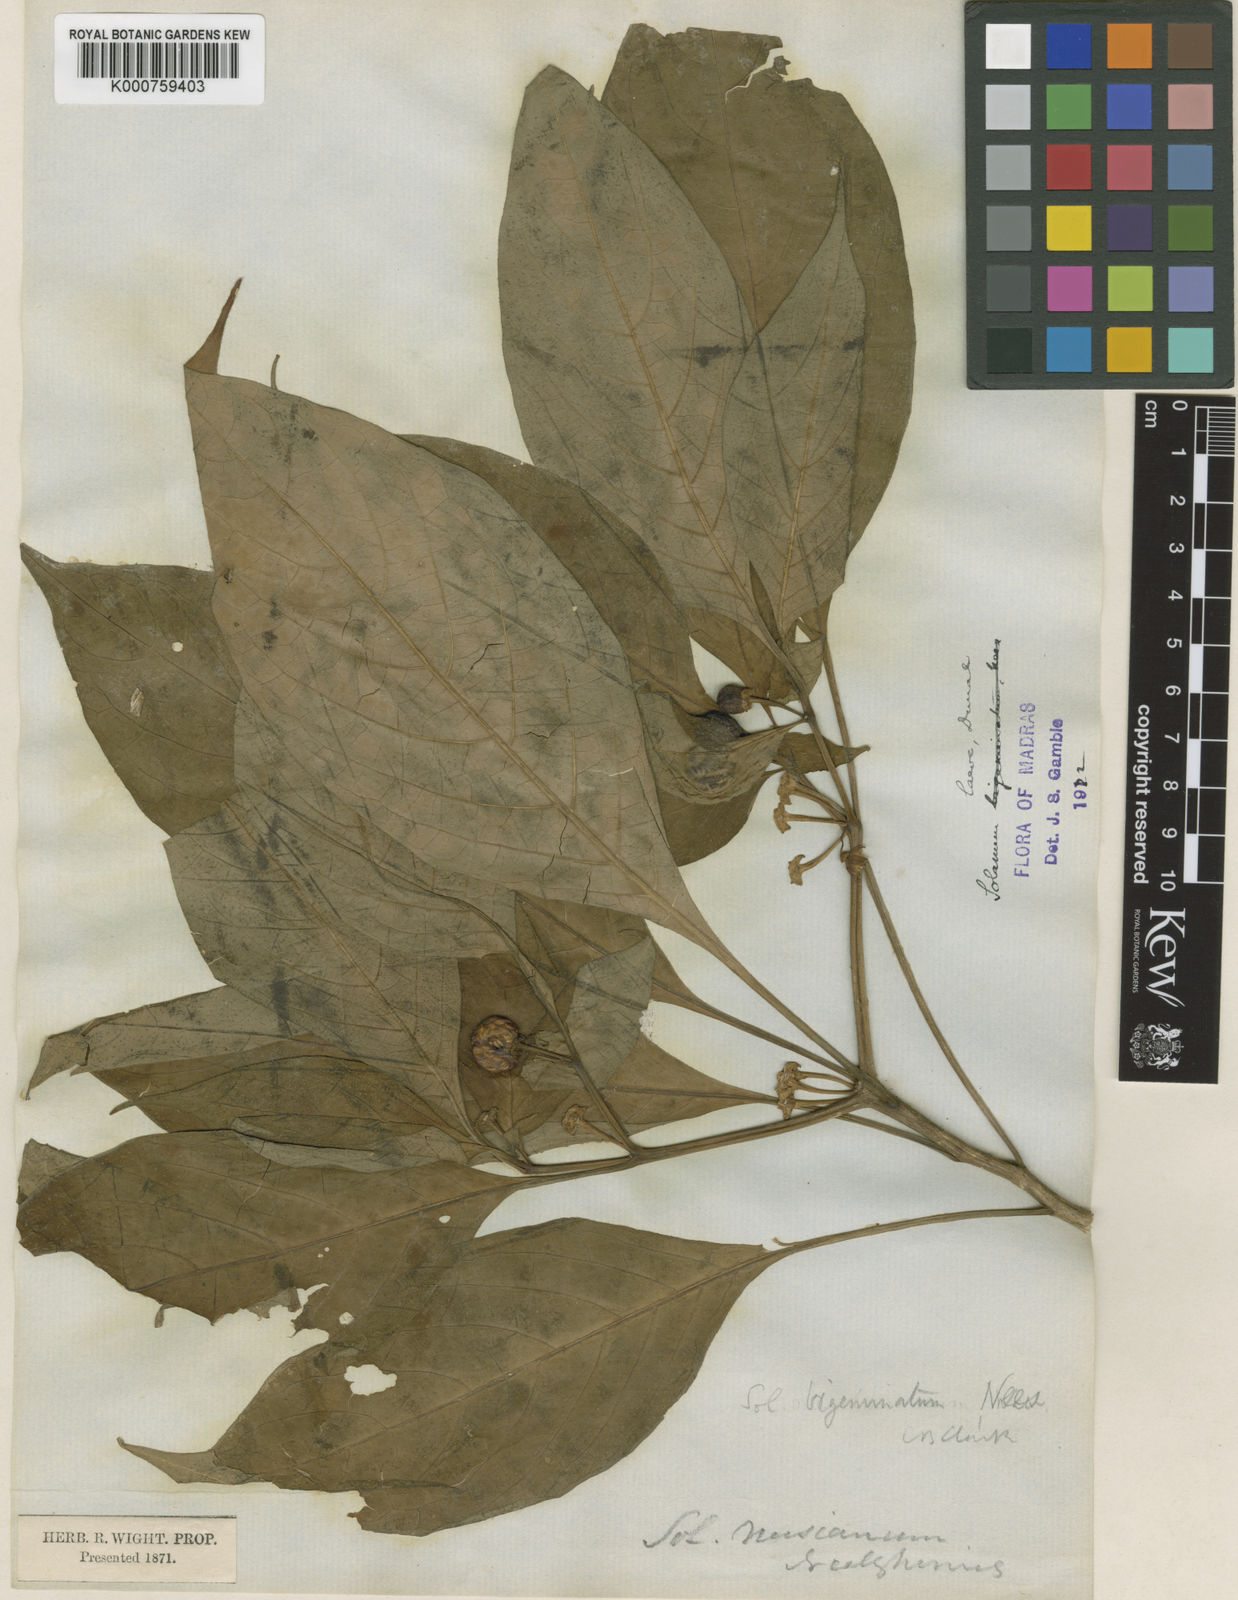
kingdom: Plantae
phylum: Tracheophyta
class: Magnoliopsida
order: Solanales
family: Solanaceae
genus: Lycianthes
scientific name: Lycianthes bigeminata
